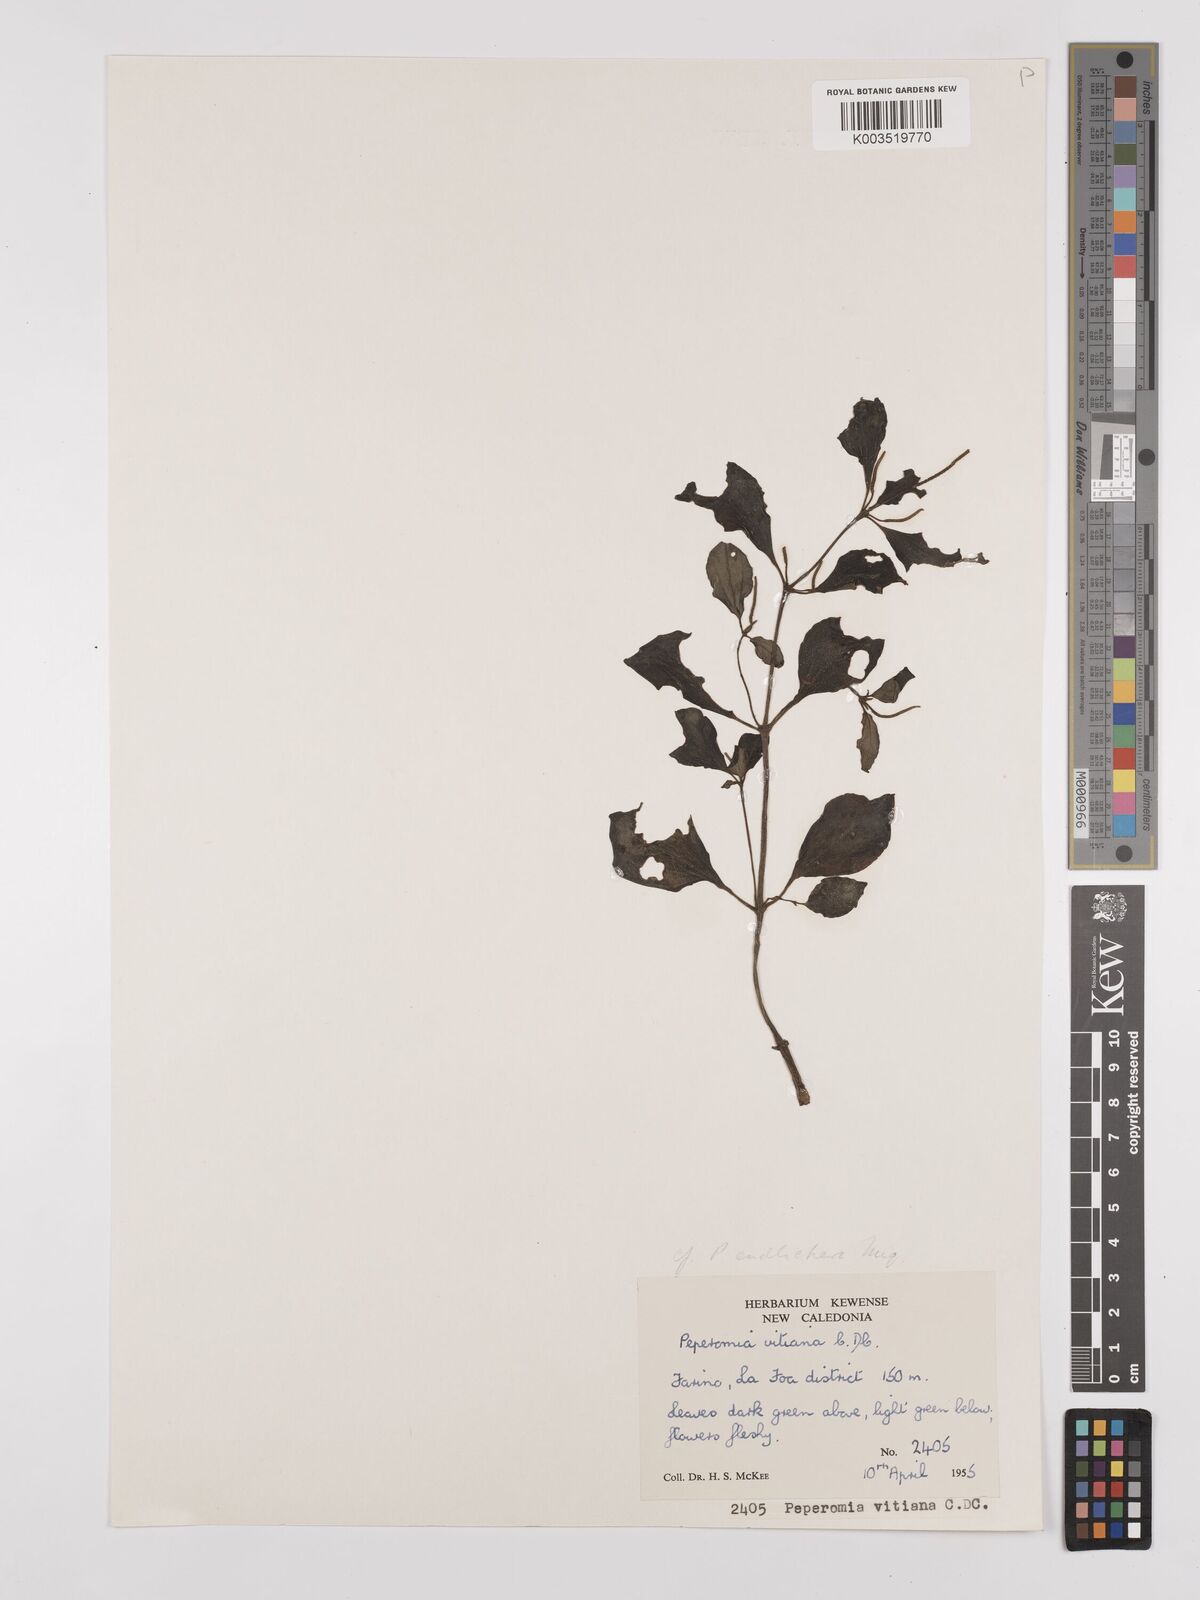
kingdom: Plantae
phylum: Tracheophyta
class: Magnoliopsida
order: Piperales
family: Piperaceae
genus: Peperomia
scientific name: Peperomia urvilleana
